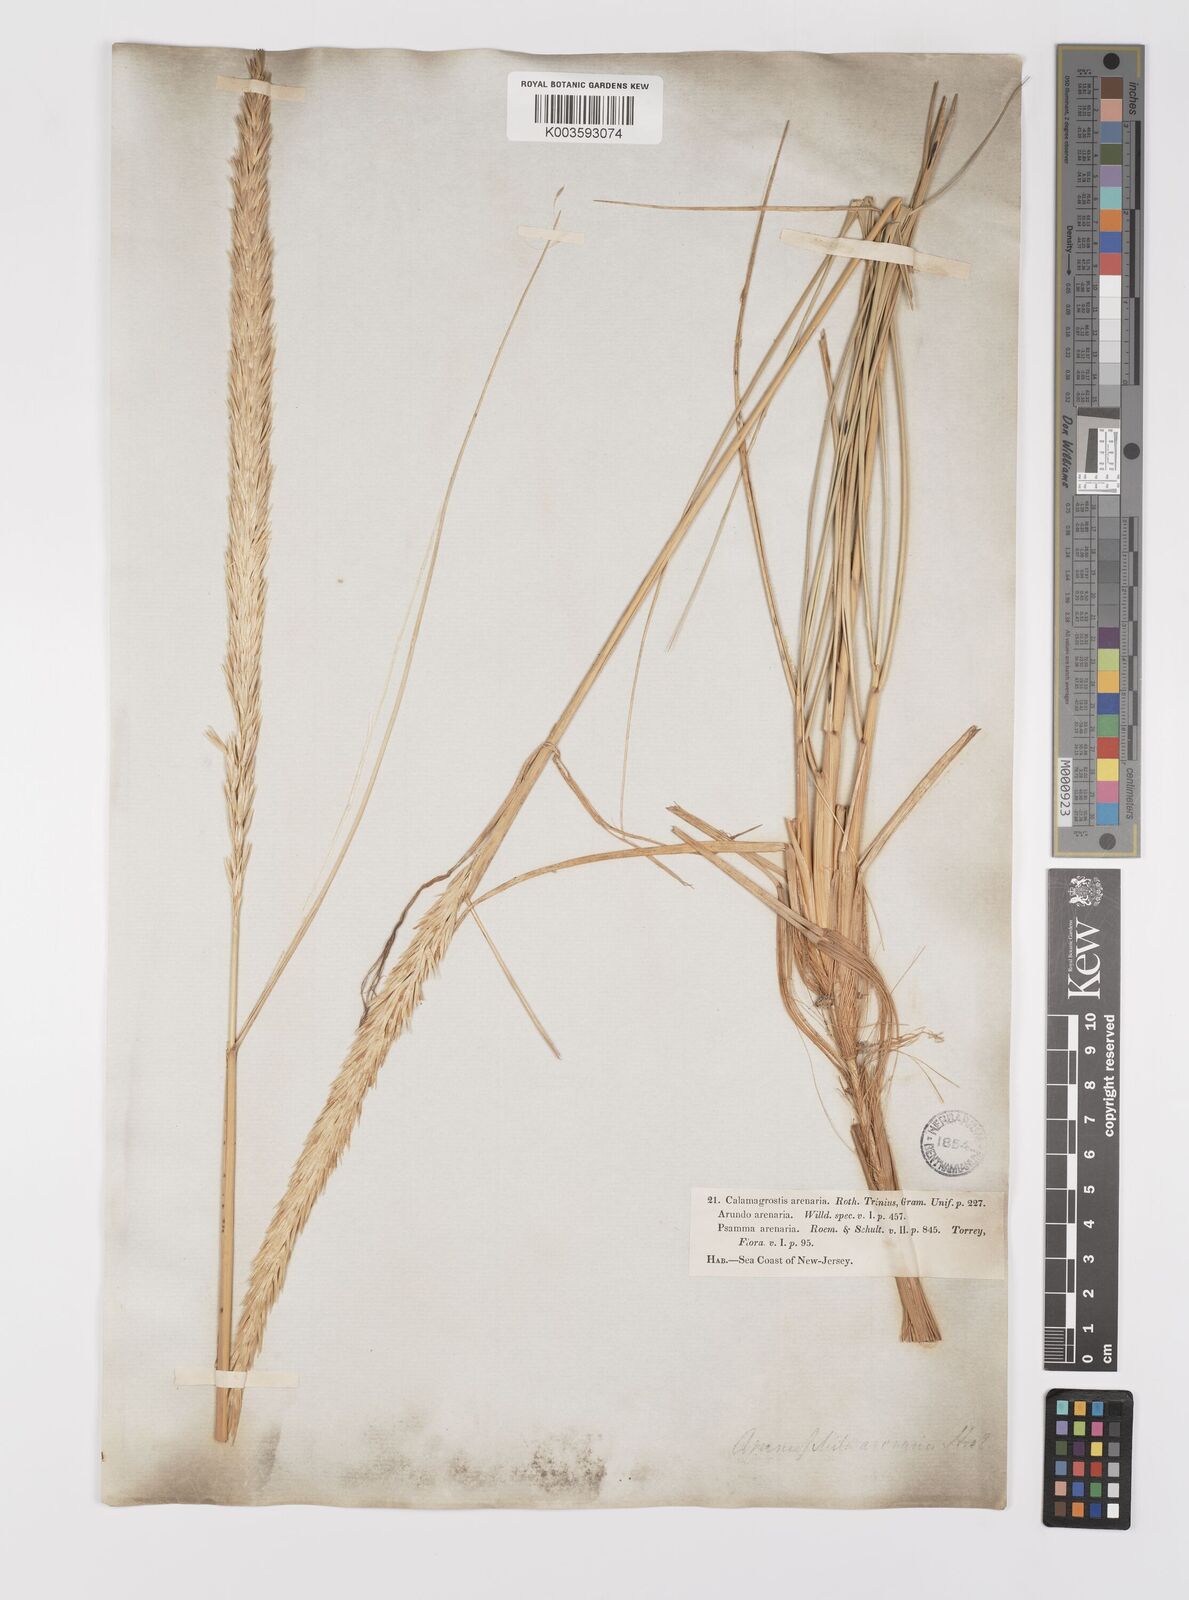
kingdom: Plantae
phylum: Tracheophyta
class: Liliopsida
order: Poales
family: Poaceae
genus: Calamagrostis
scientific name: Calamagrostis breviligulata
